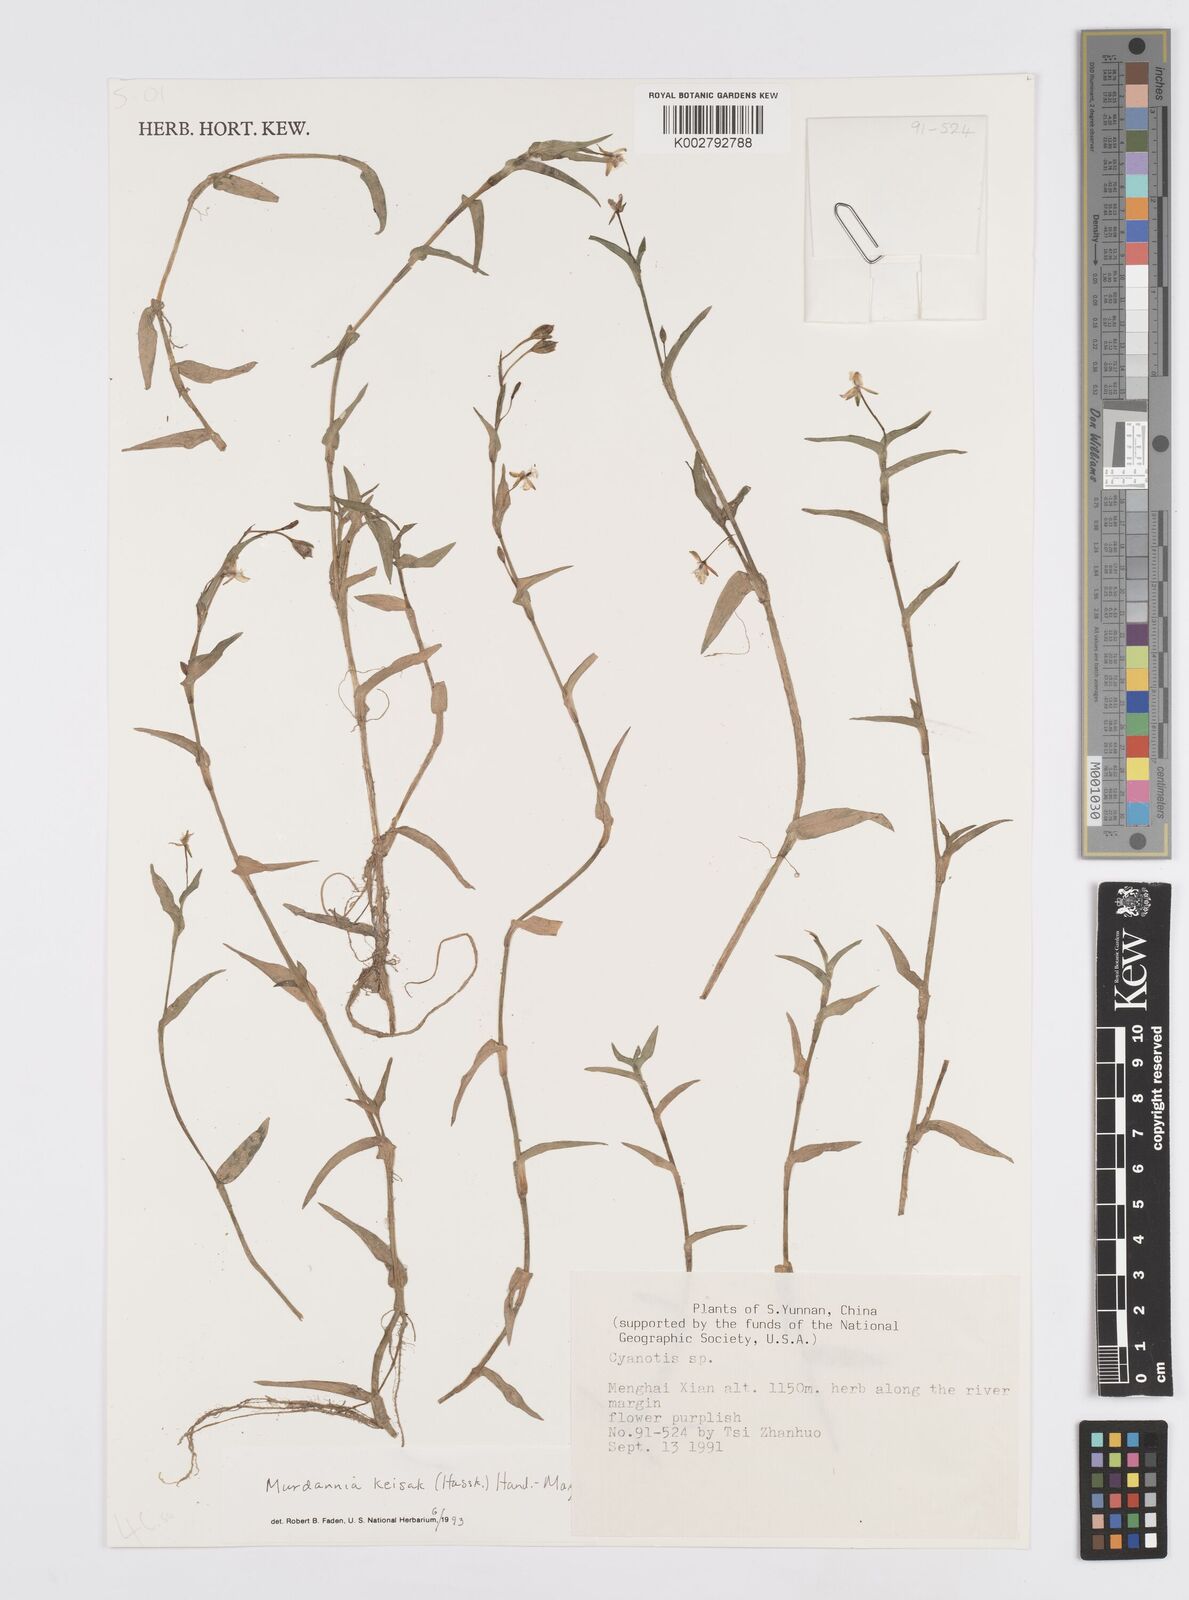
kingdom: Plantae
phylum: Tracheophyta
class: Liliopsida
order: Commelinales
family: Commelinaceae
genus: Murdannia
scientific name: Murdannia keisak
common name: Wartremoving herb
